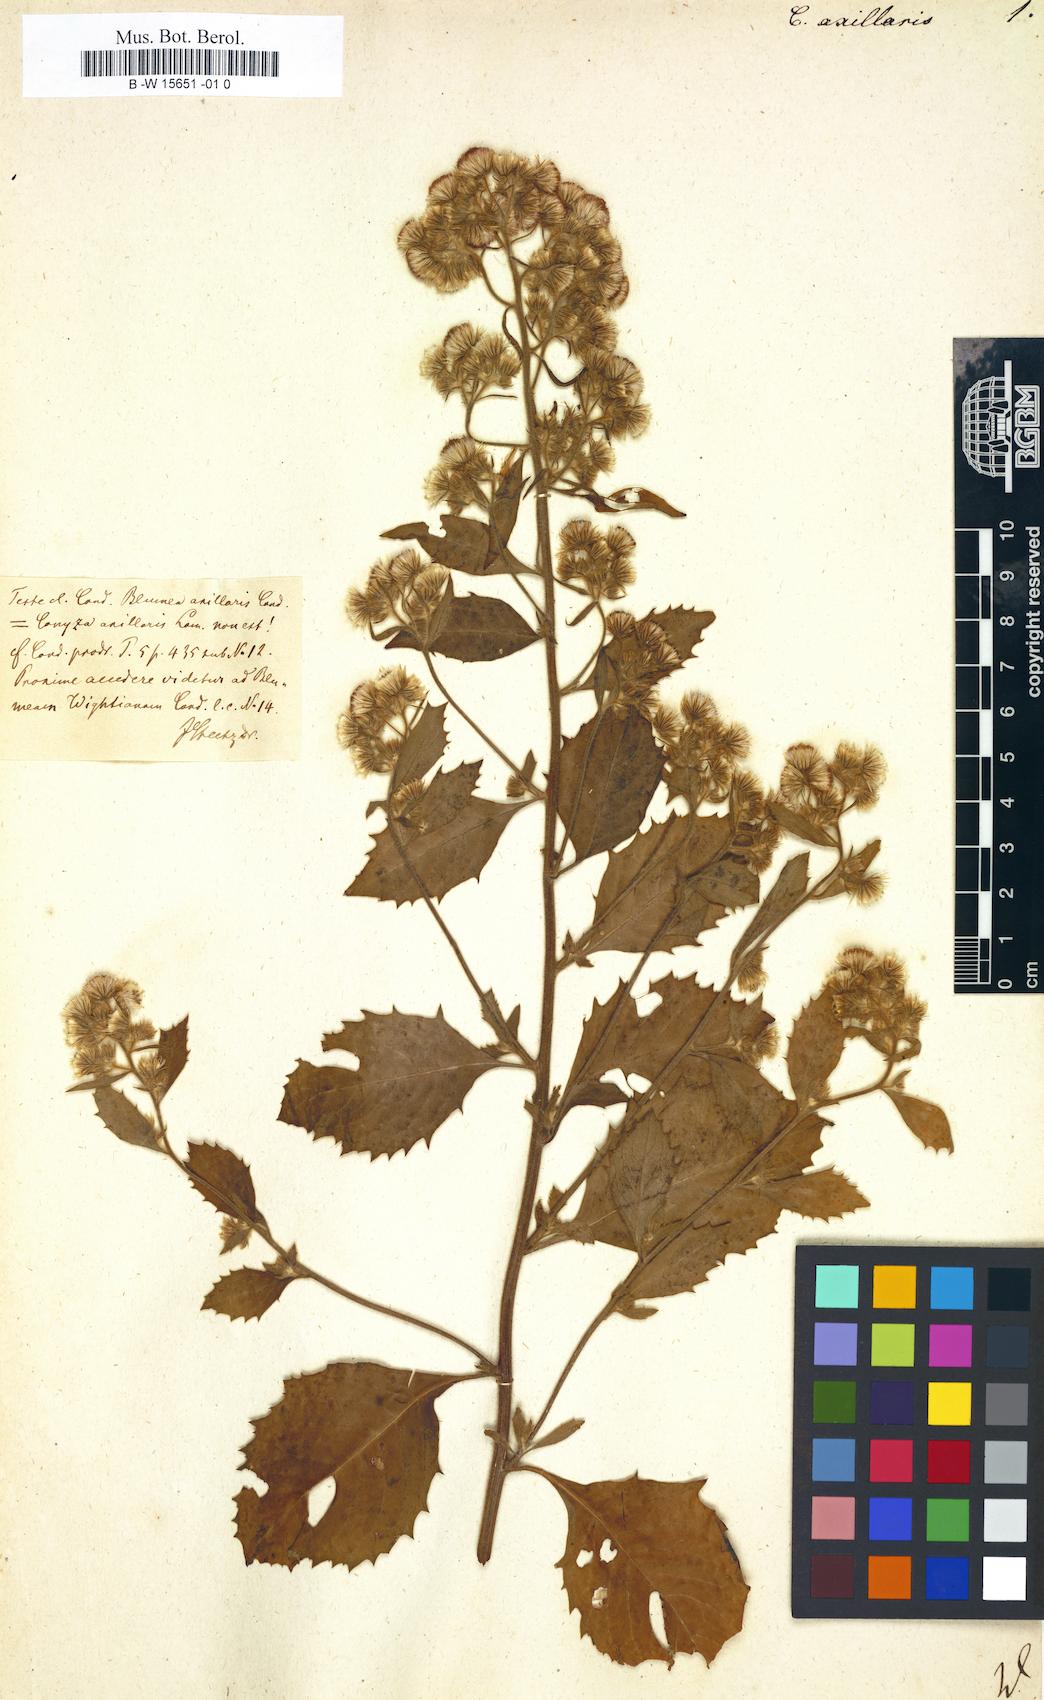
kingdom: Plantae
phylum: Tracheophyta
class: Magnoliopsida
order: Asterales
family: Asteraceae
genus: Blumea
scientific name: Blumea axillaris
